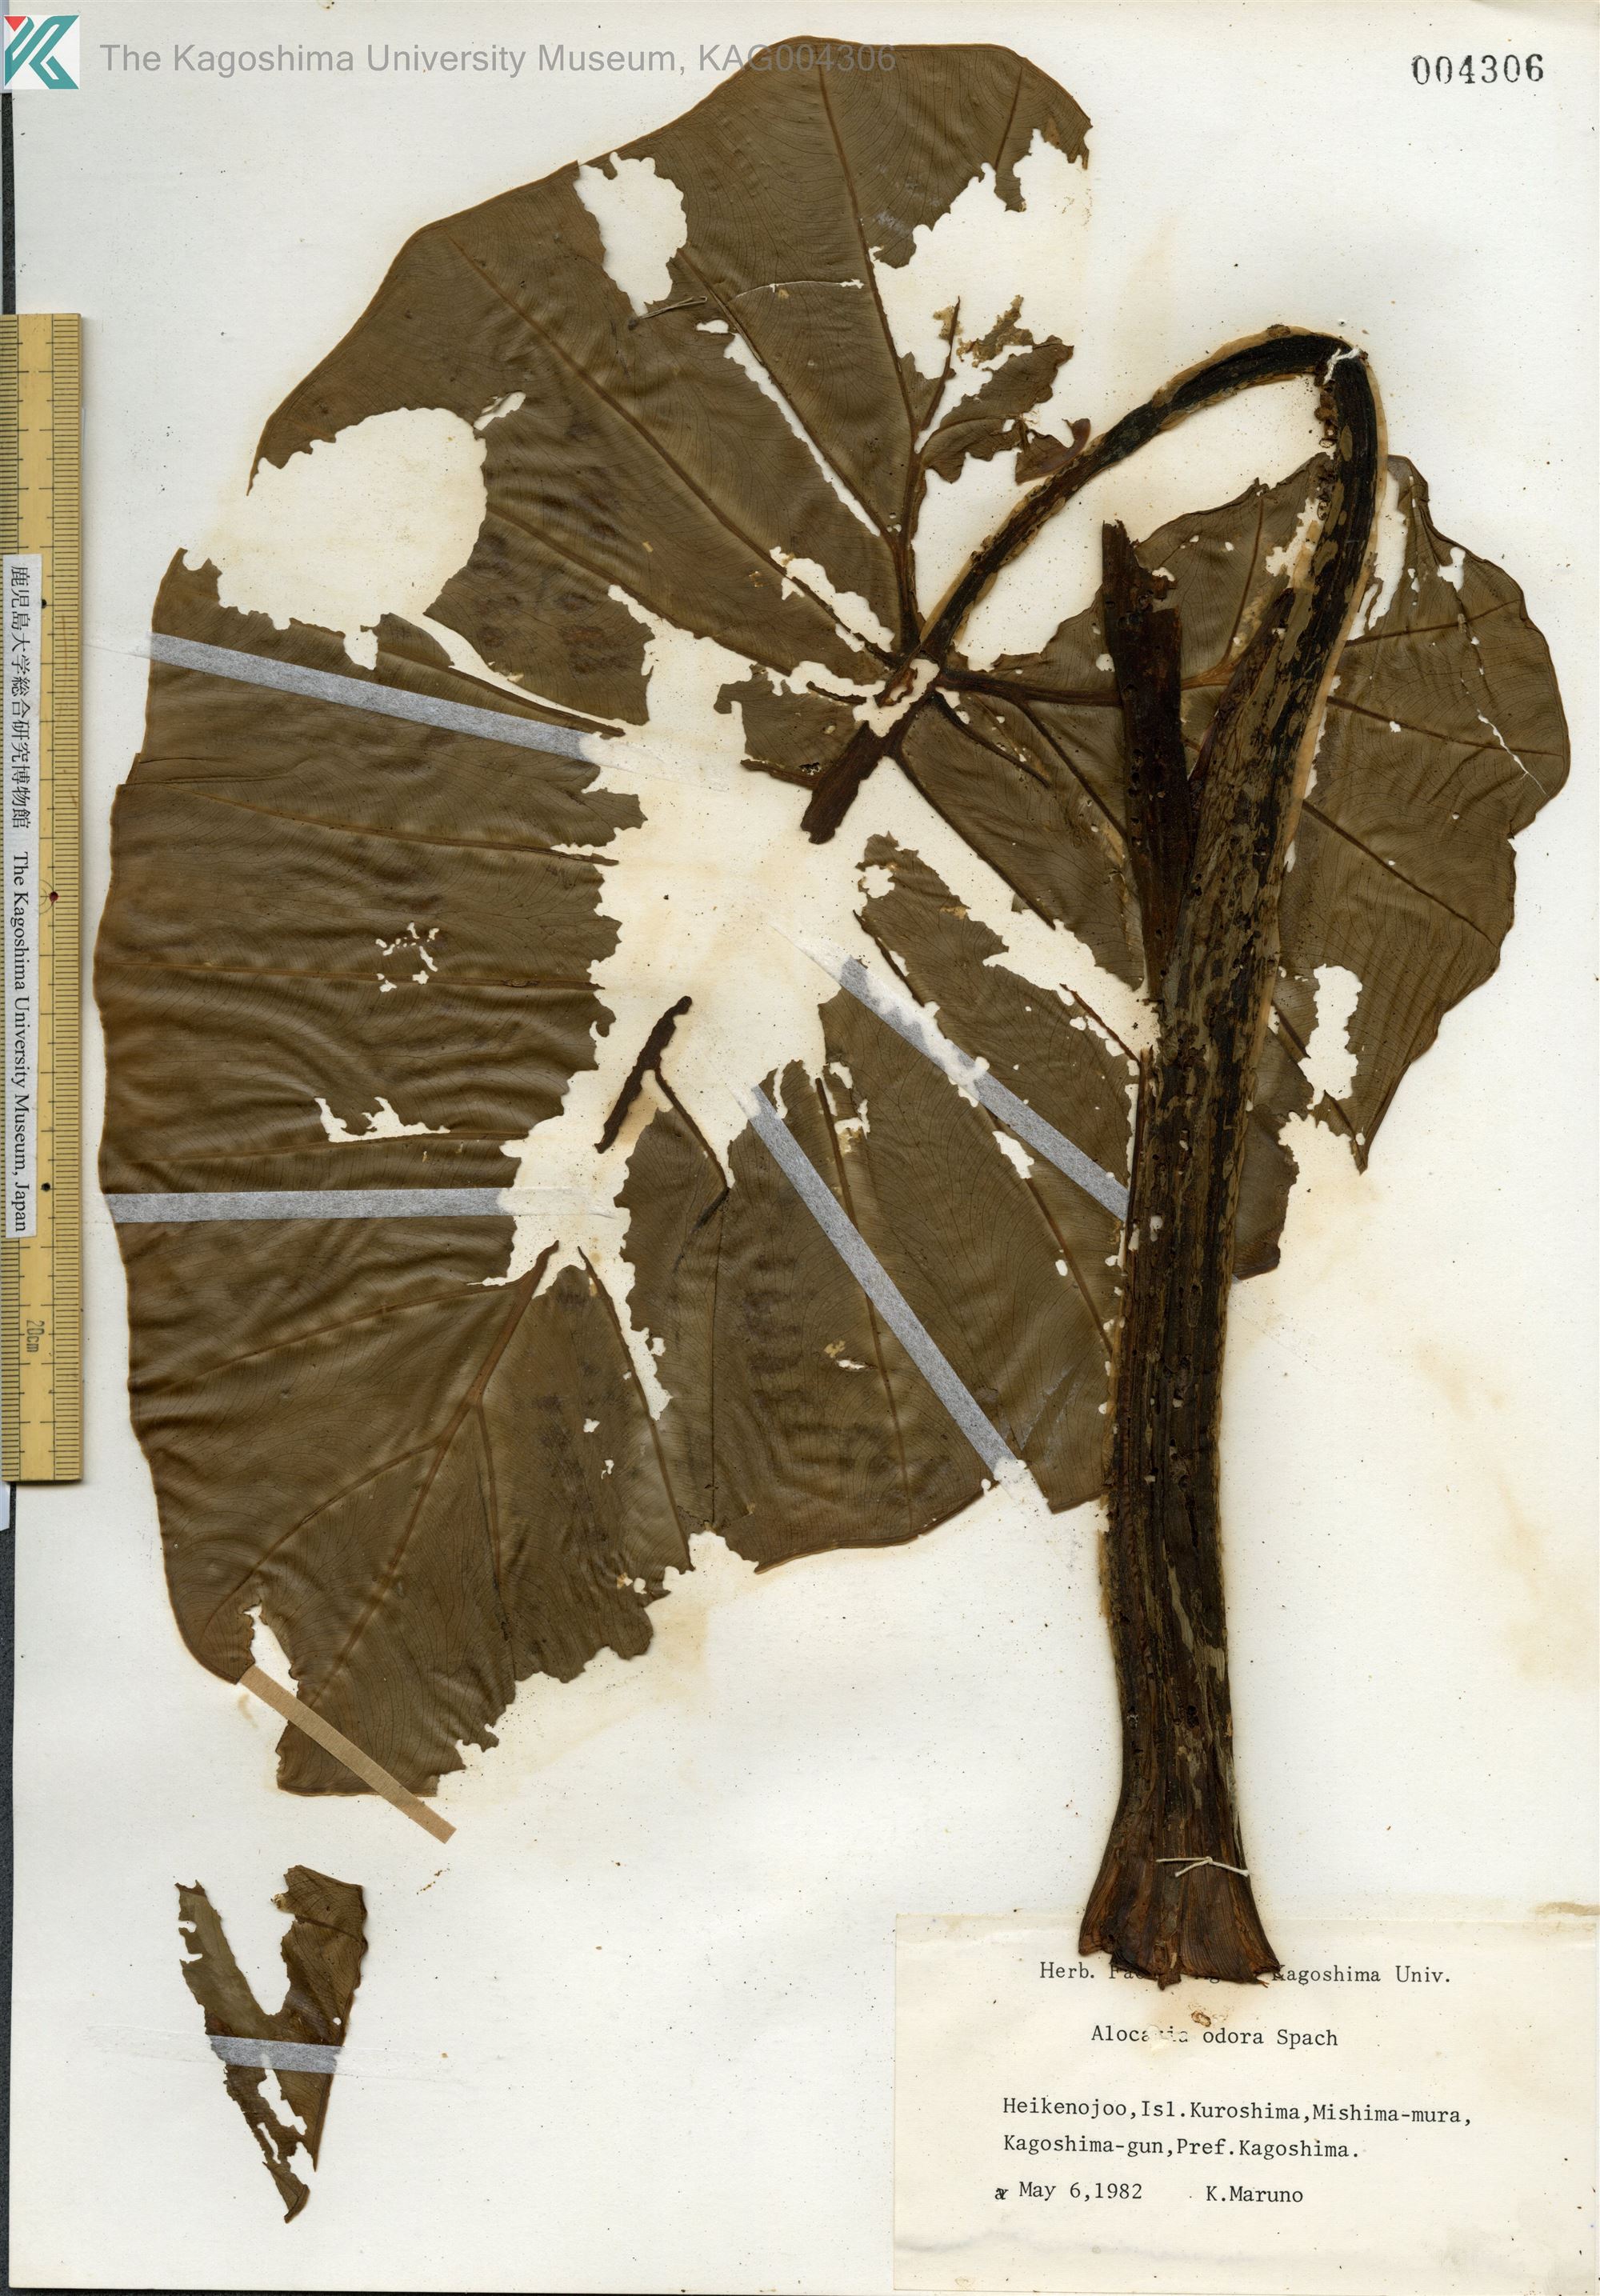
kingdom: Plantae
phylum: Tracheophyta
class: Liliopsida
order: Alismatales
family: Araceae
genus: Alocasia
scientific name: Alocasia odora
